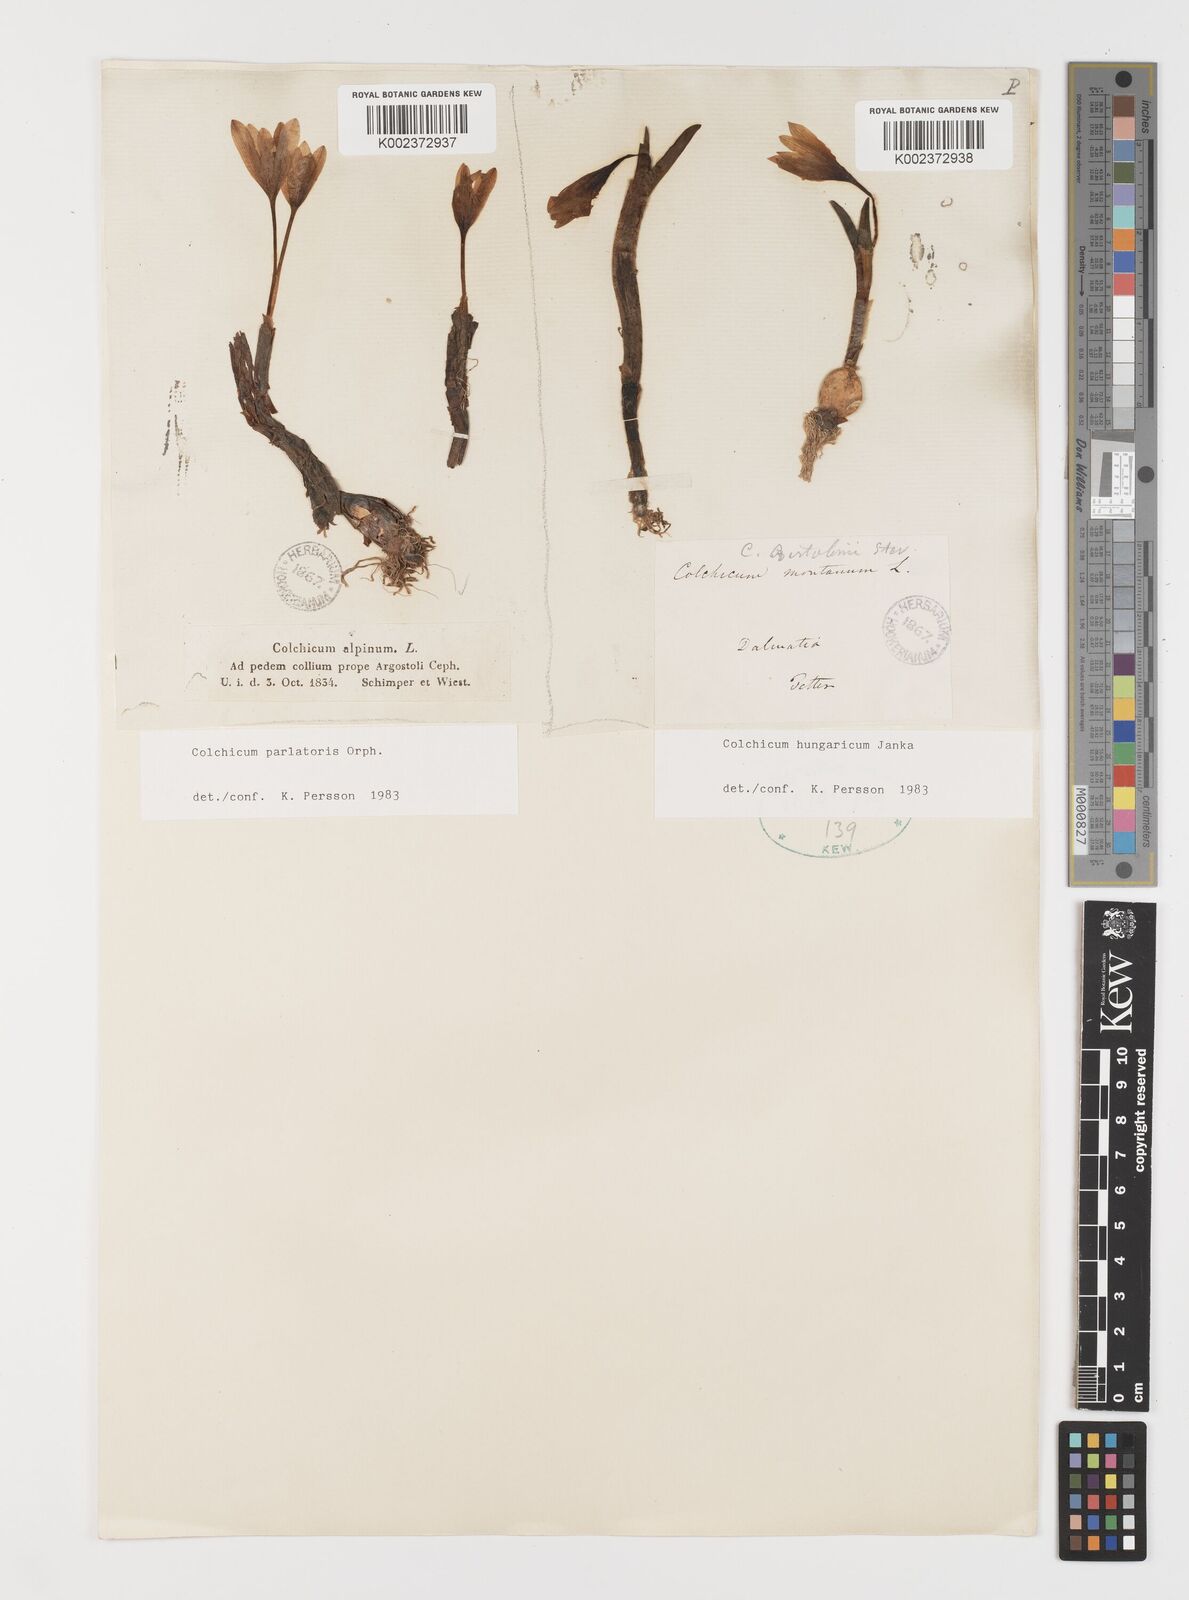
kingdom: Plantae
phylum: Tracheophyta
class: Liliopsida
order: Liliales
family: Colchicaceae
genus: Colchicum
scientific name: Colchicum parlatoris
